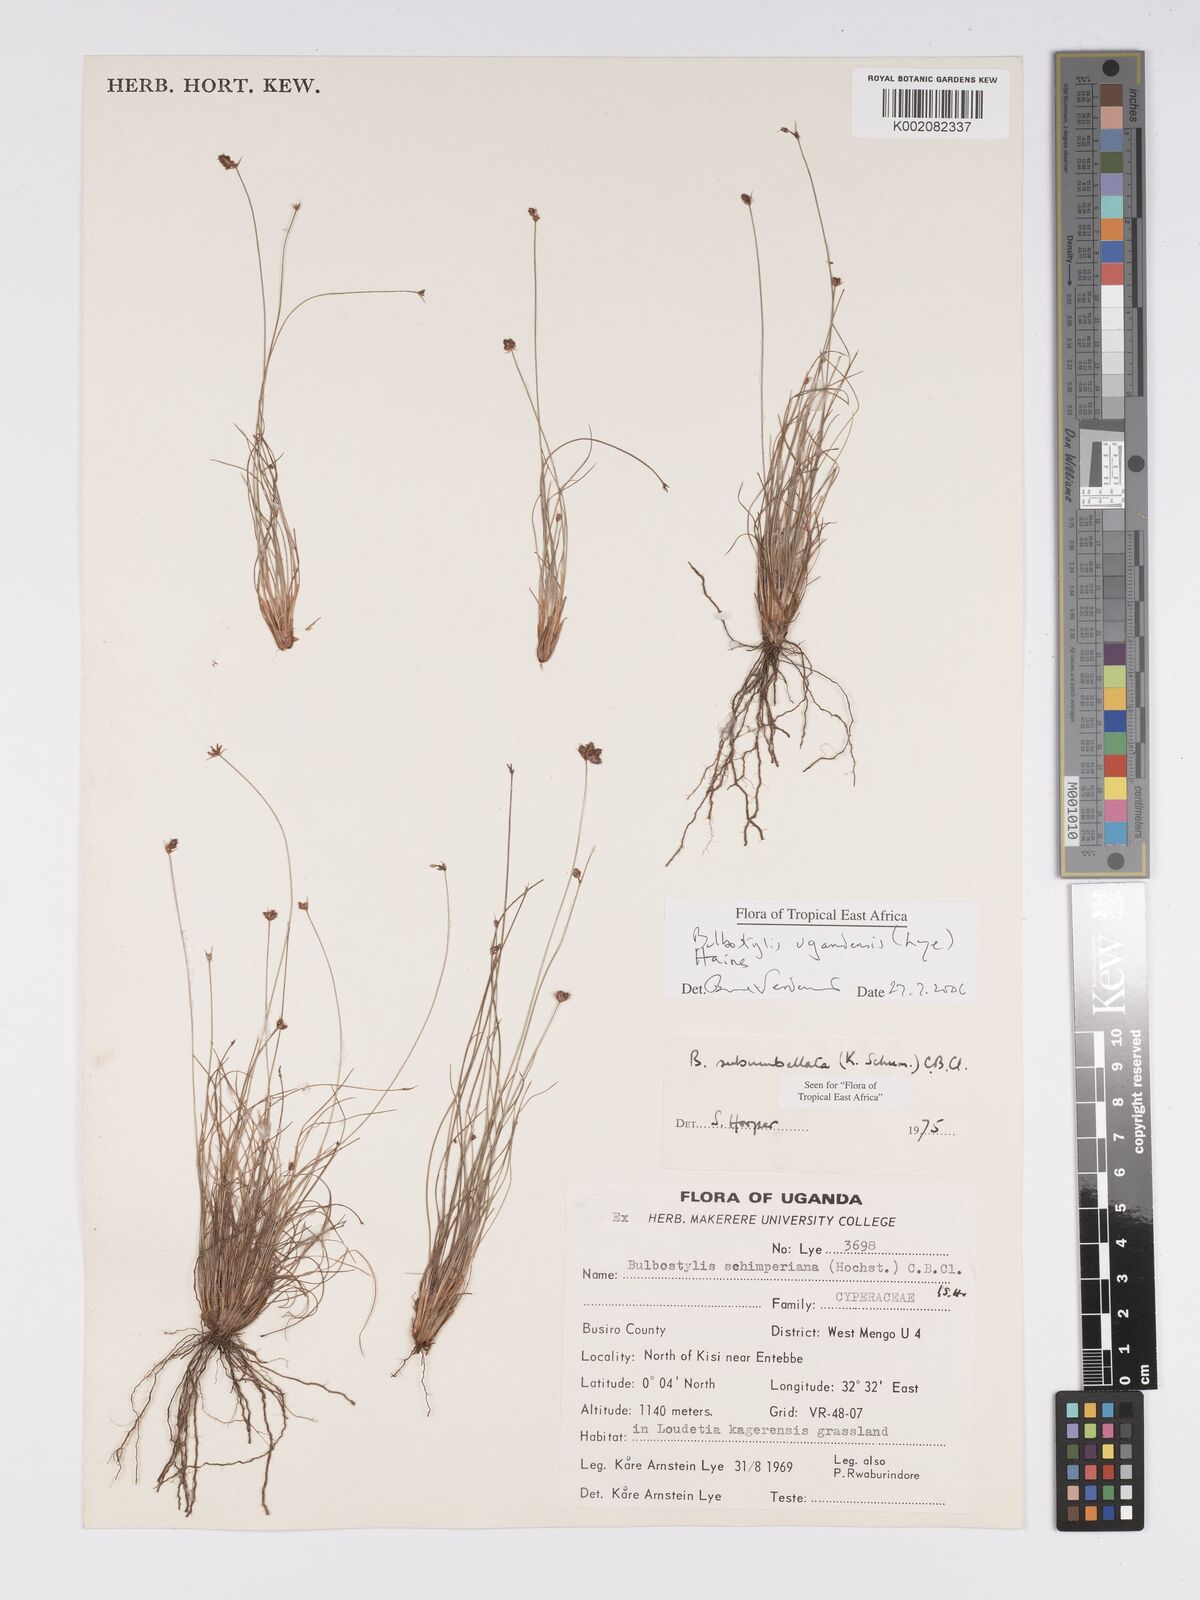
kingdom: Plantae
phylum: Tracheophyta
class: Liliopsida
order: Poales
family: Cyperaceae
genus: Bulbostylis
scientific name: Bulbostylis ugandensis
